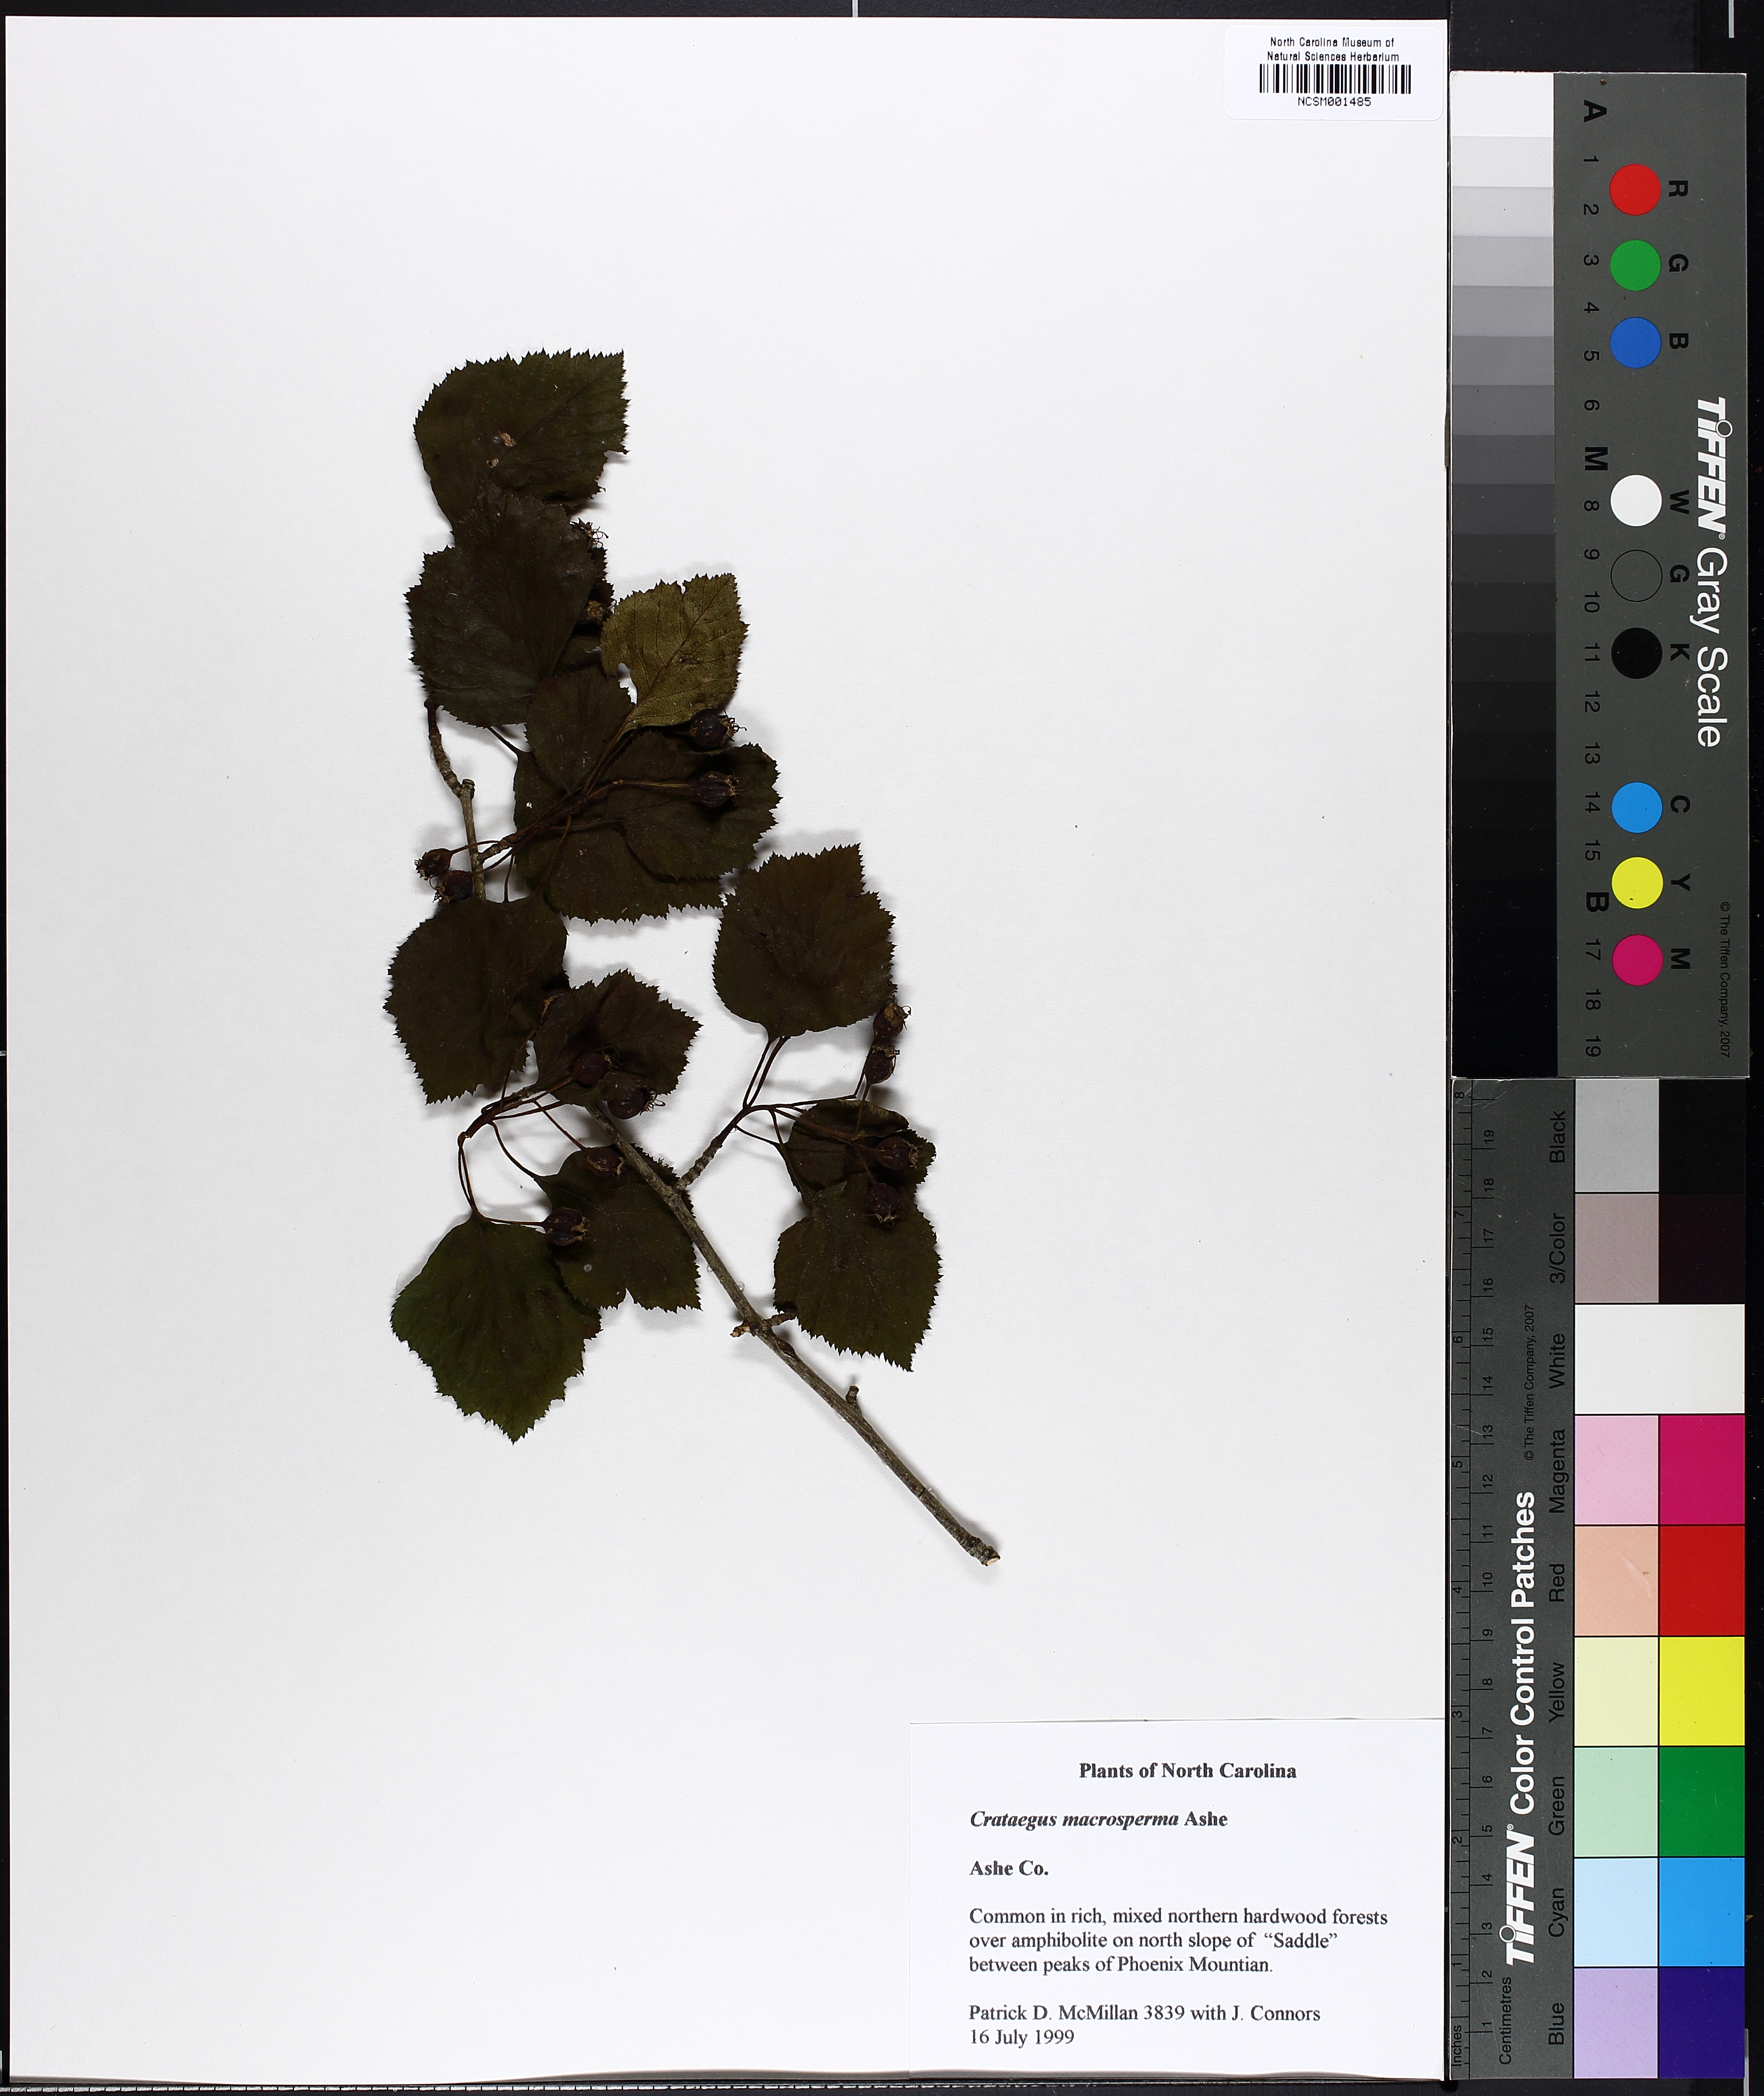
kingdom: Plantae
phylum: Tracheophyta
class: Magnoliopsida
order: Rosales
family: Rosaceae
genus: Crataegus
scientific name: Crataegus macrosperma
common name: Variable hawthorn
